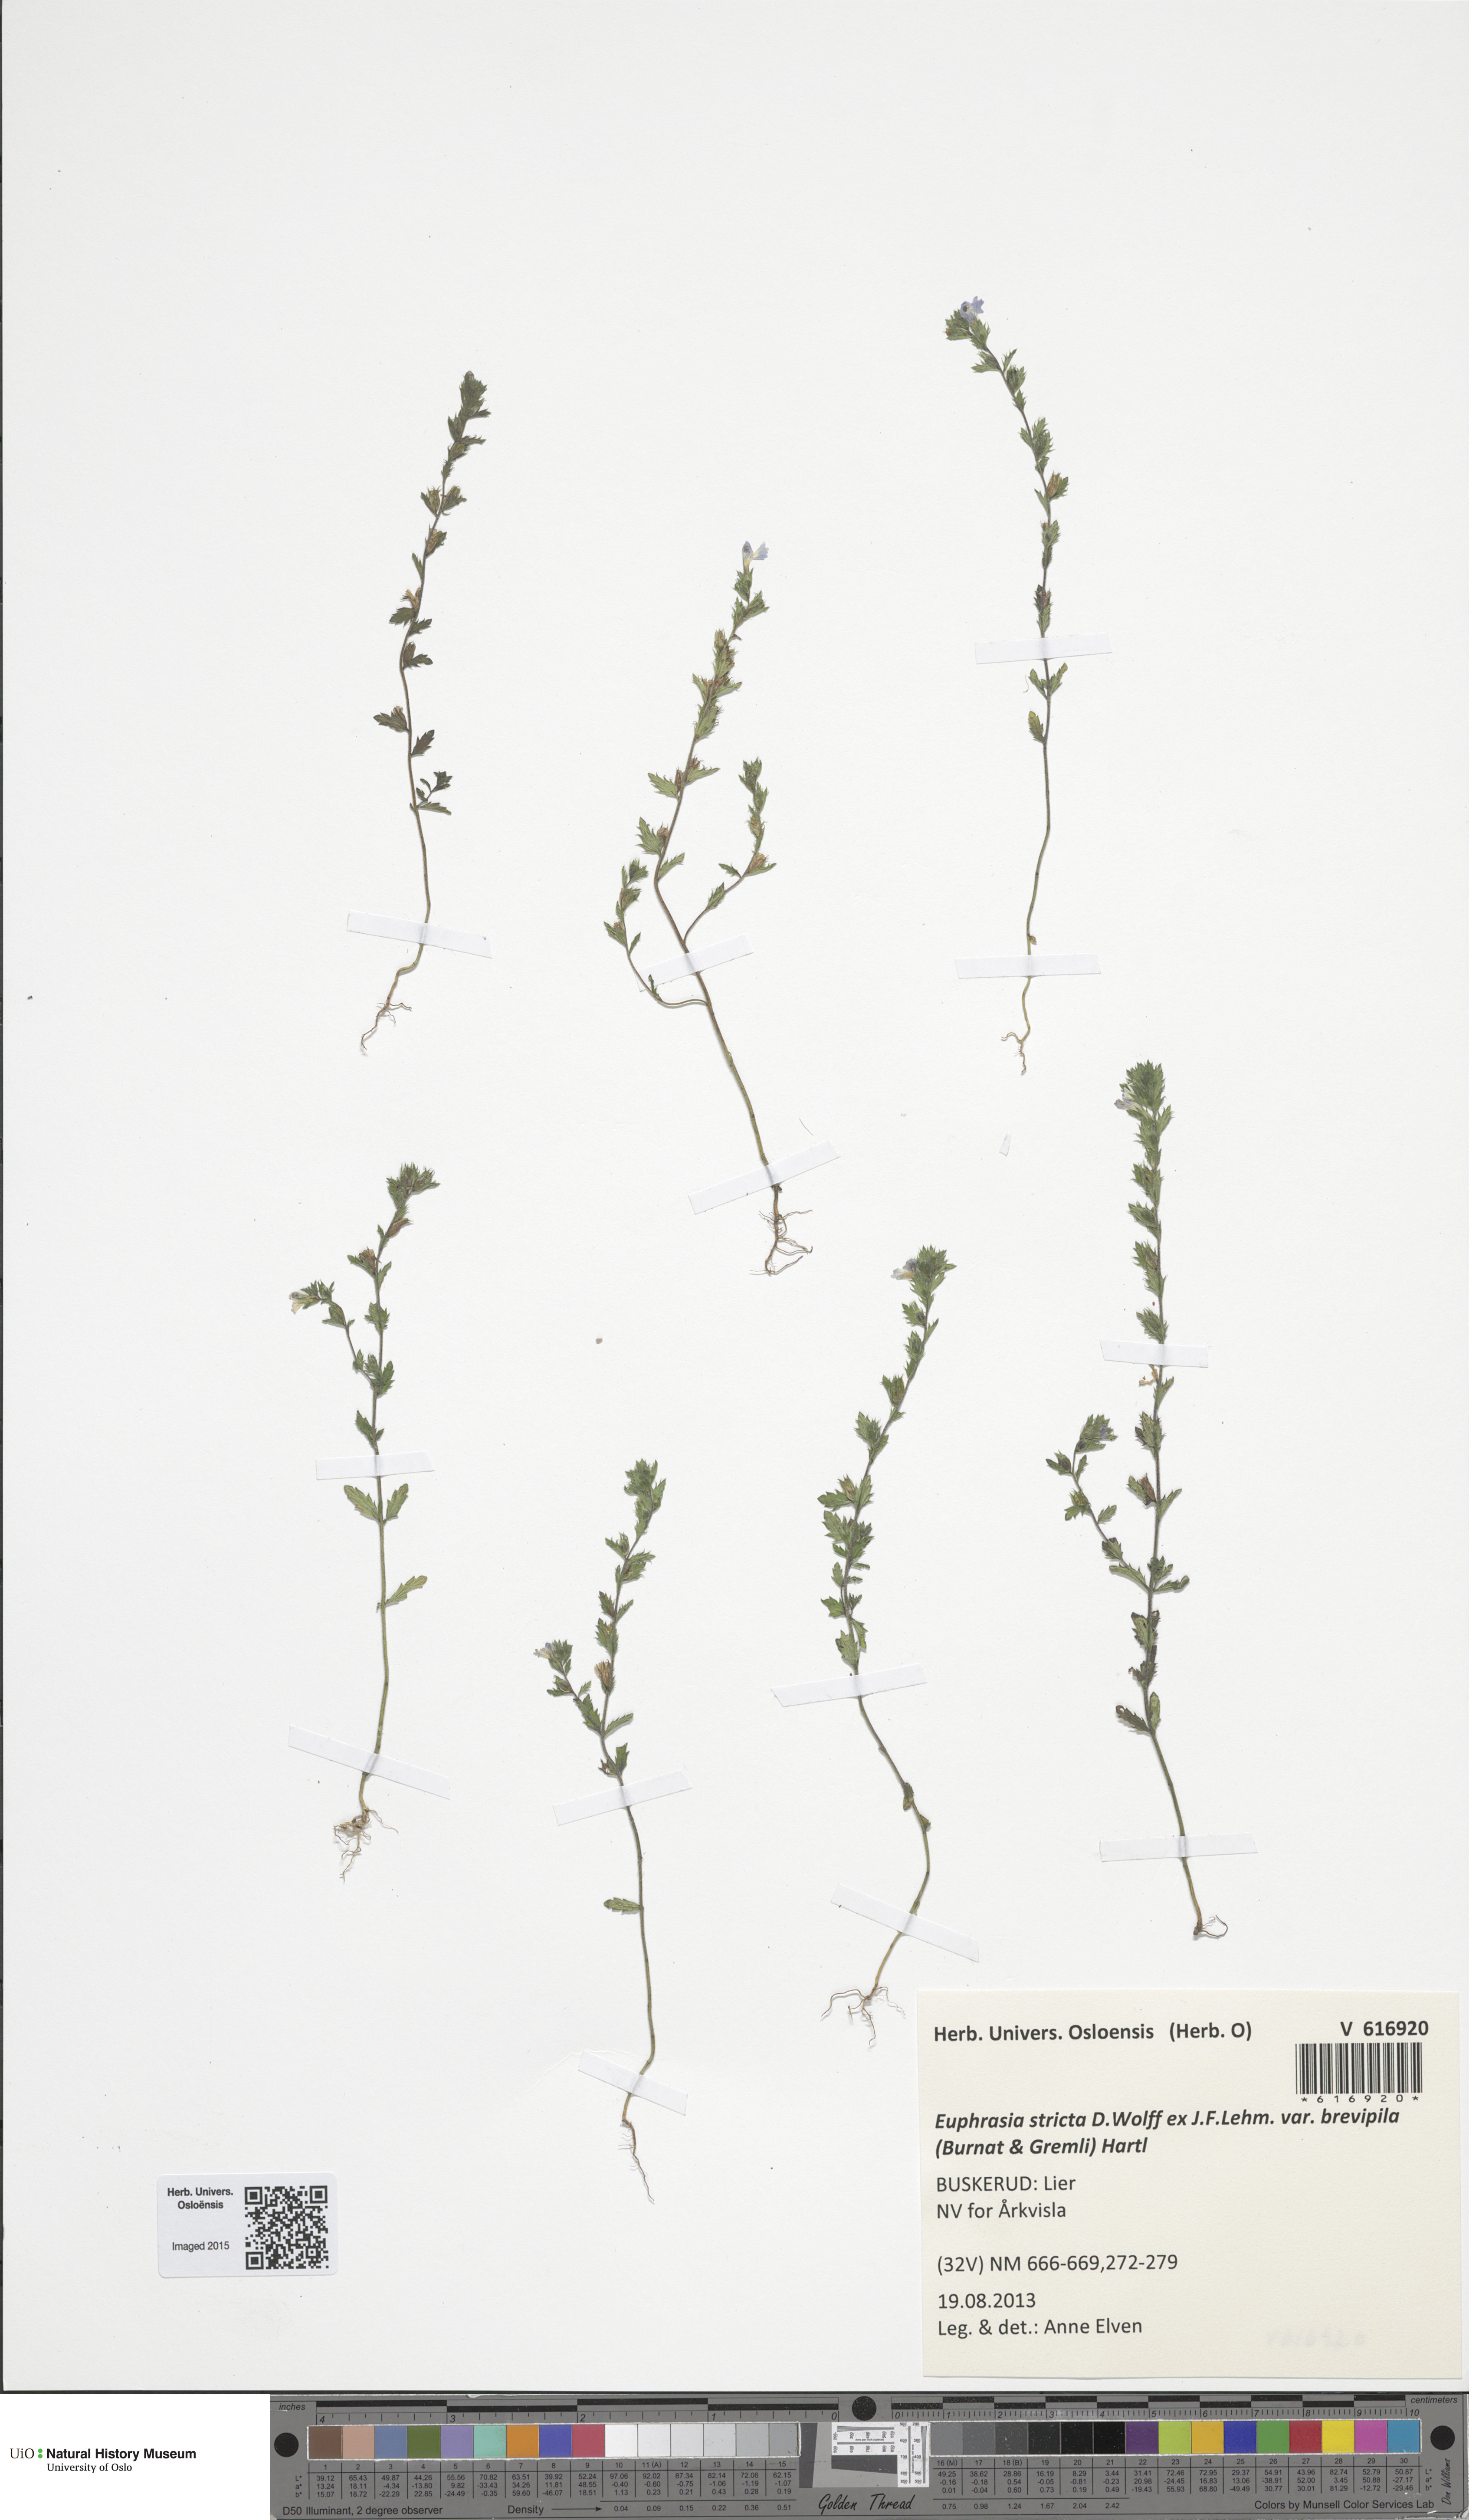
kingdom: Plantae
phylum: Tracheophyta
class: Magnoliopsida
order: Lamiales
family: Orobanchaceae
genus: Euphrasia
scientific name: Euphrasia vernalis
